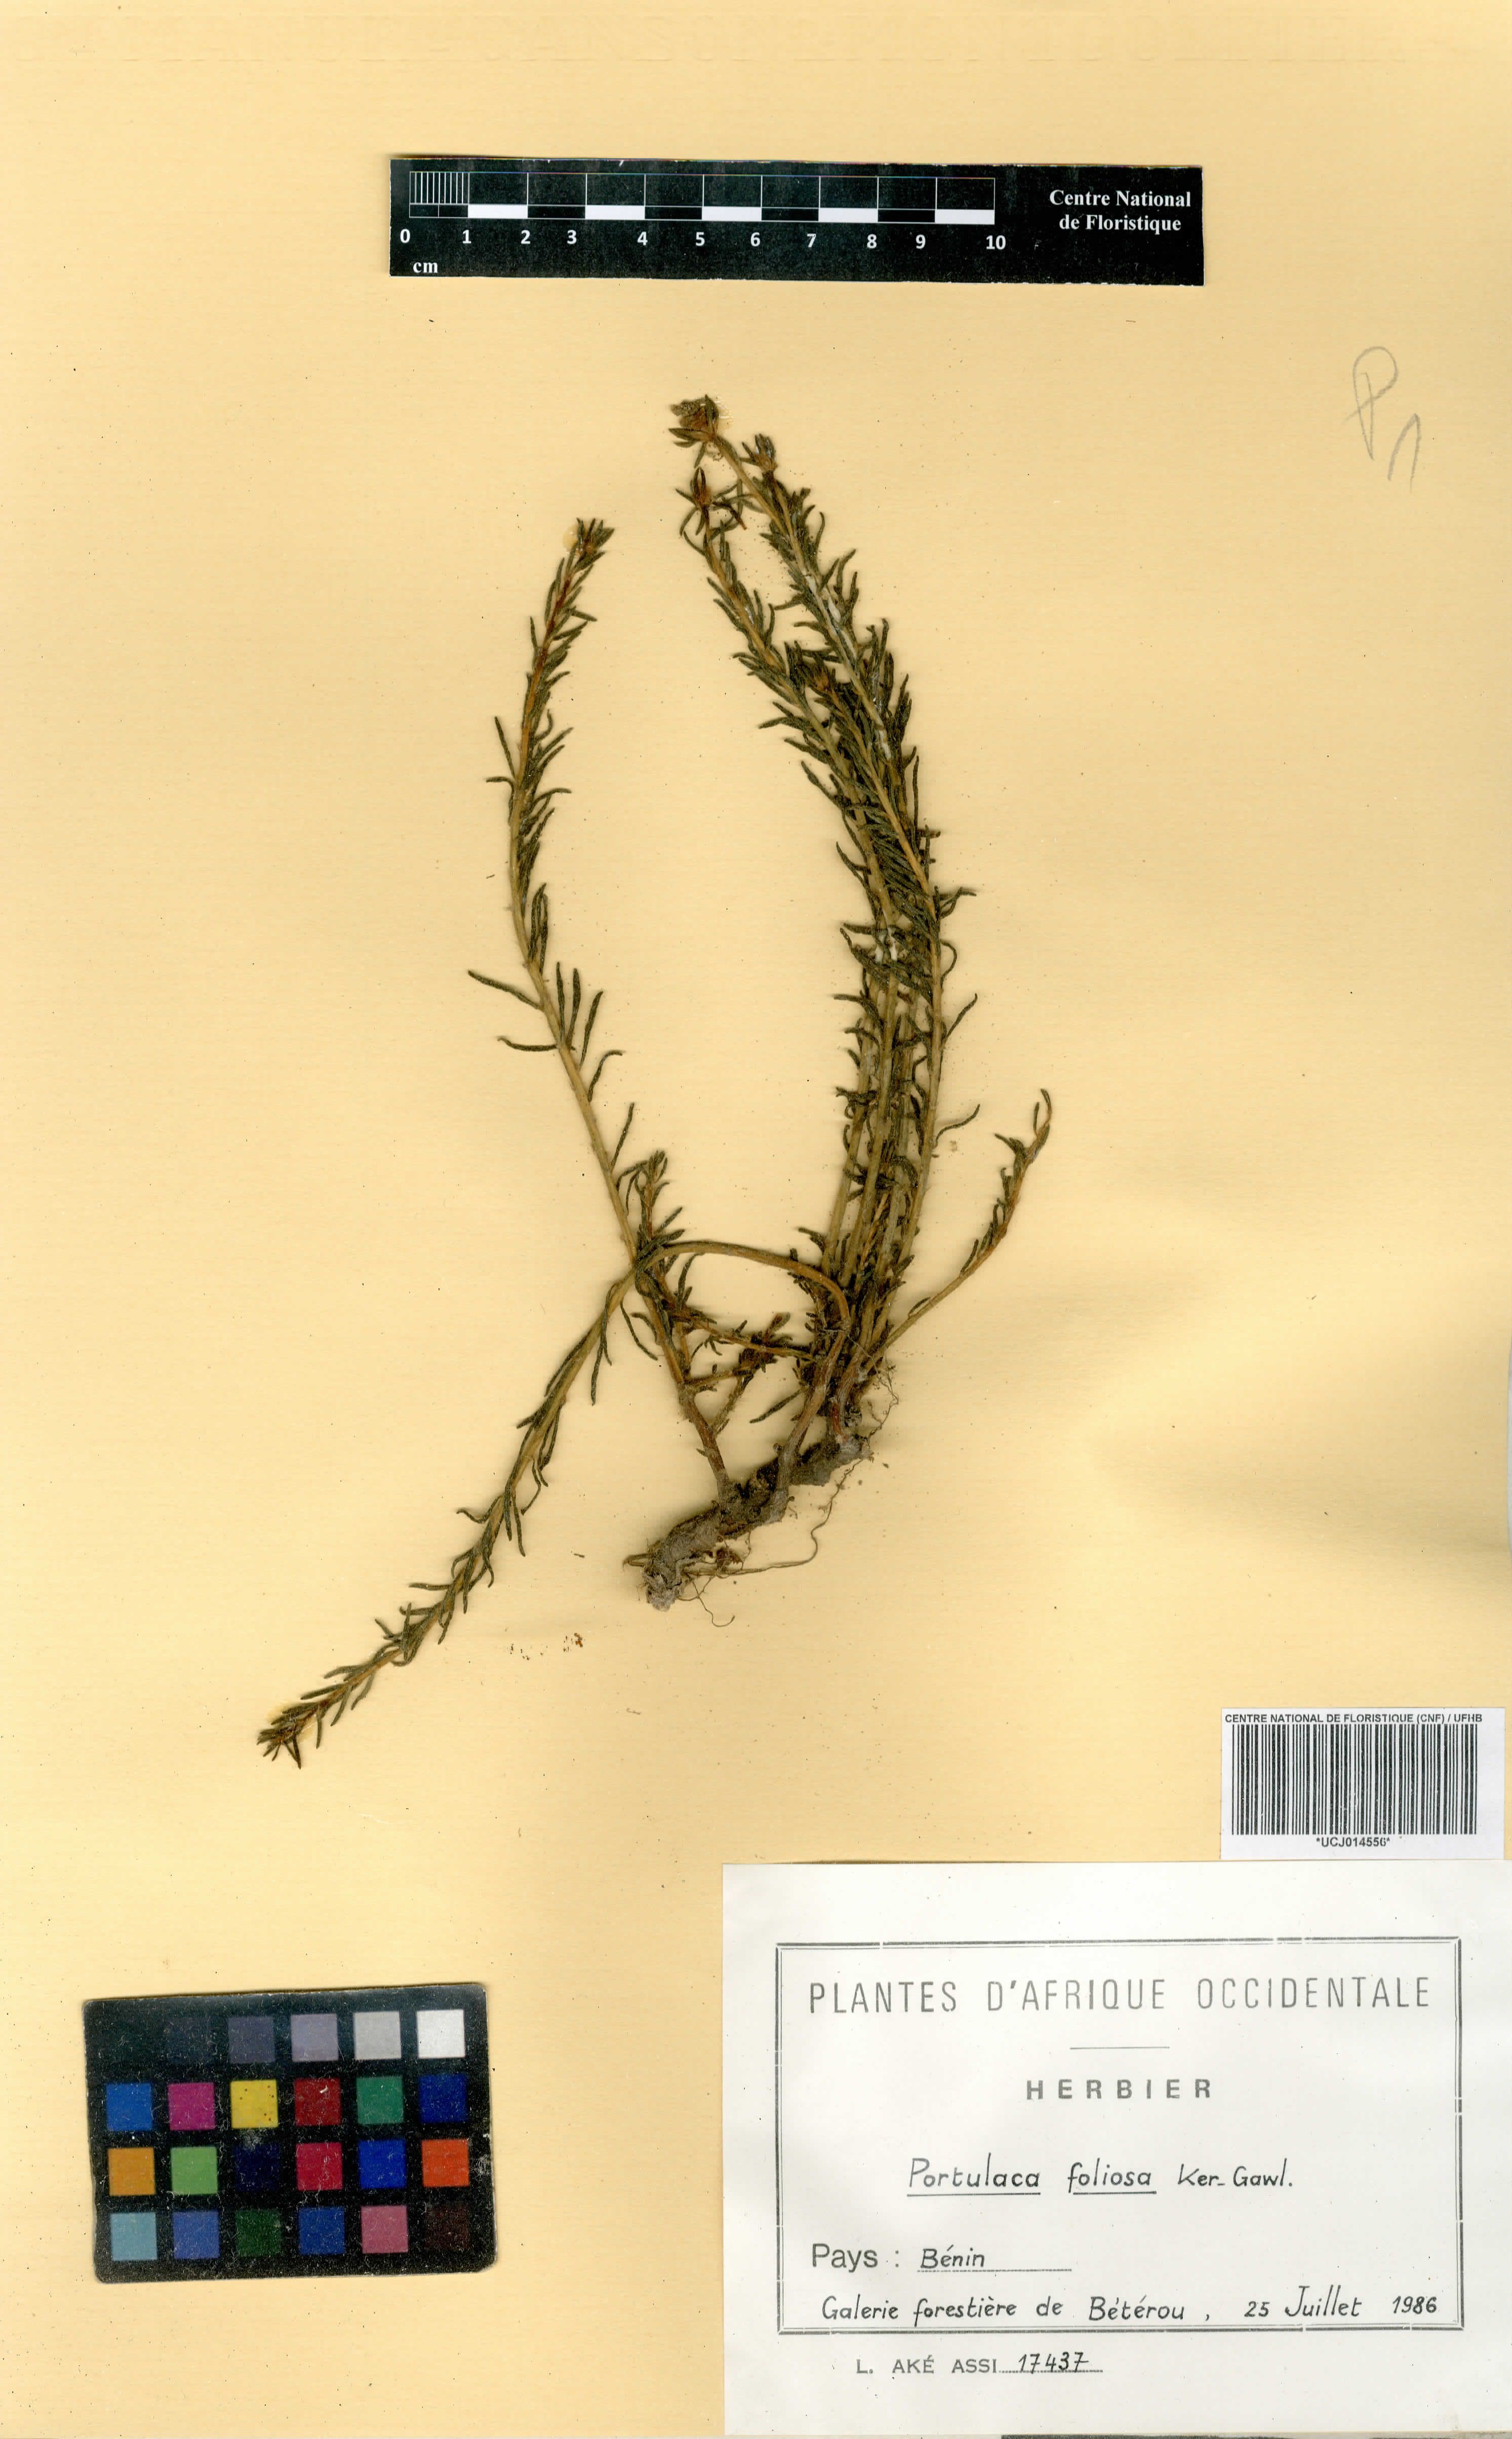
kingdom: Plantae
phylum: Tracheophyta
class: Magnoliopsida
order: Caryophyllales
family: Portulacaceae
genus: Portulaca
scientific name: Portulaca foliosa
